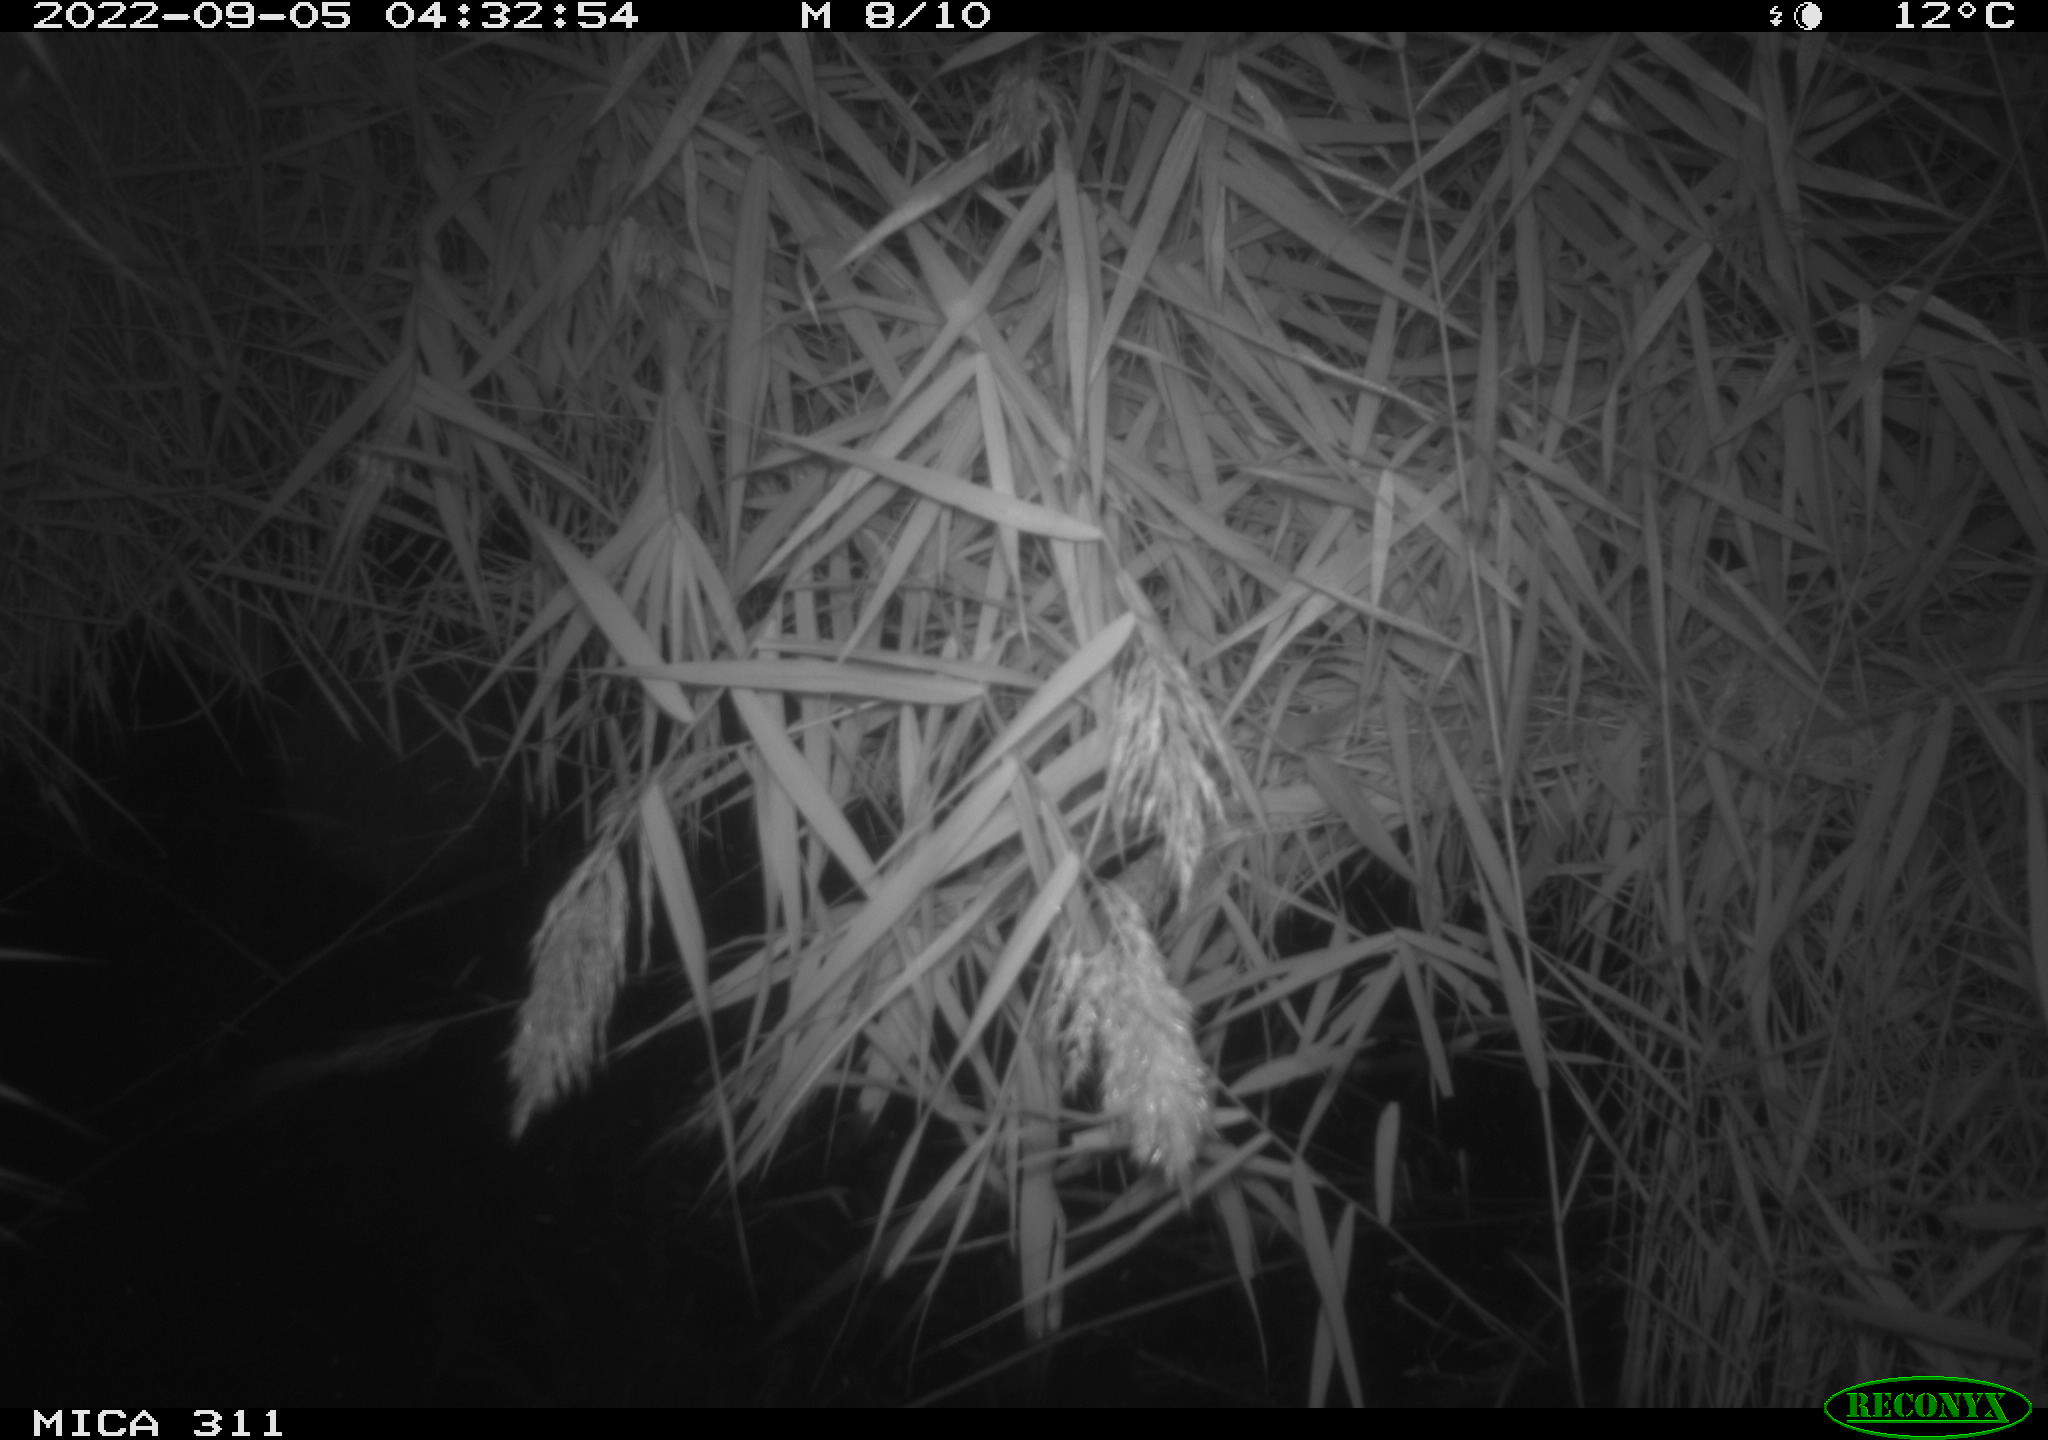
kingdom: Animalia
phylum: Chordata
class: Mammalia
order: Rodentia
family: Muridae
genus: Rattus
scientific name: Rattus norvegicus
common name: Brown rat
